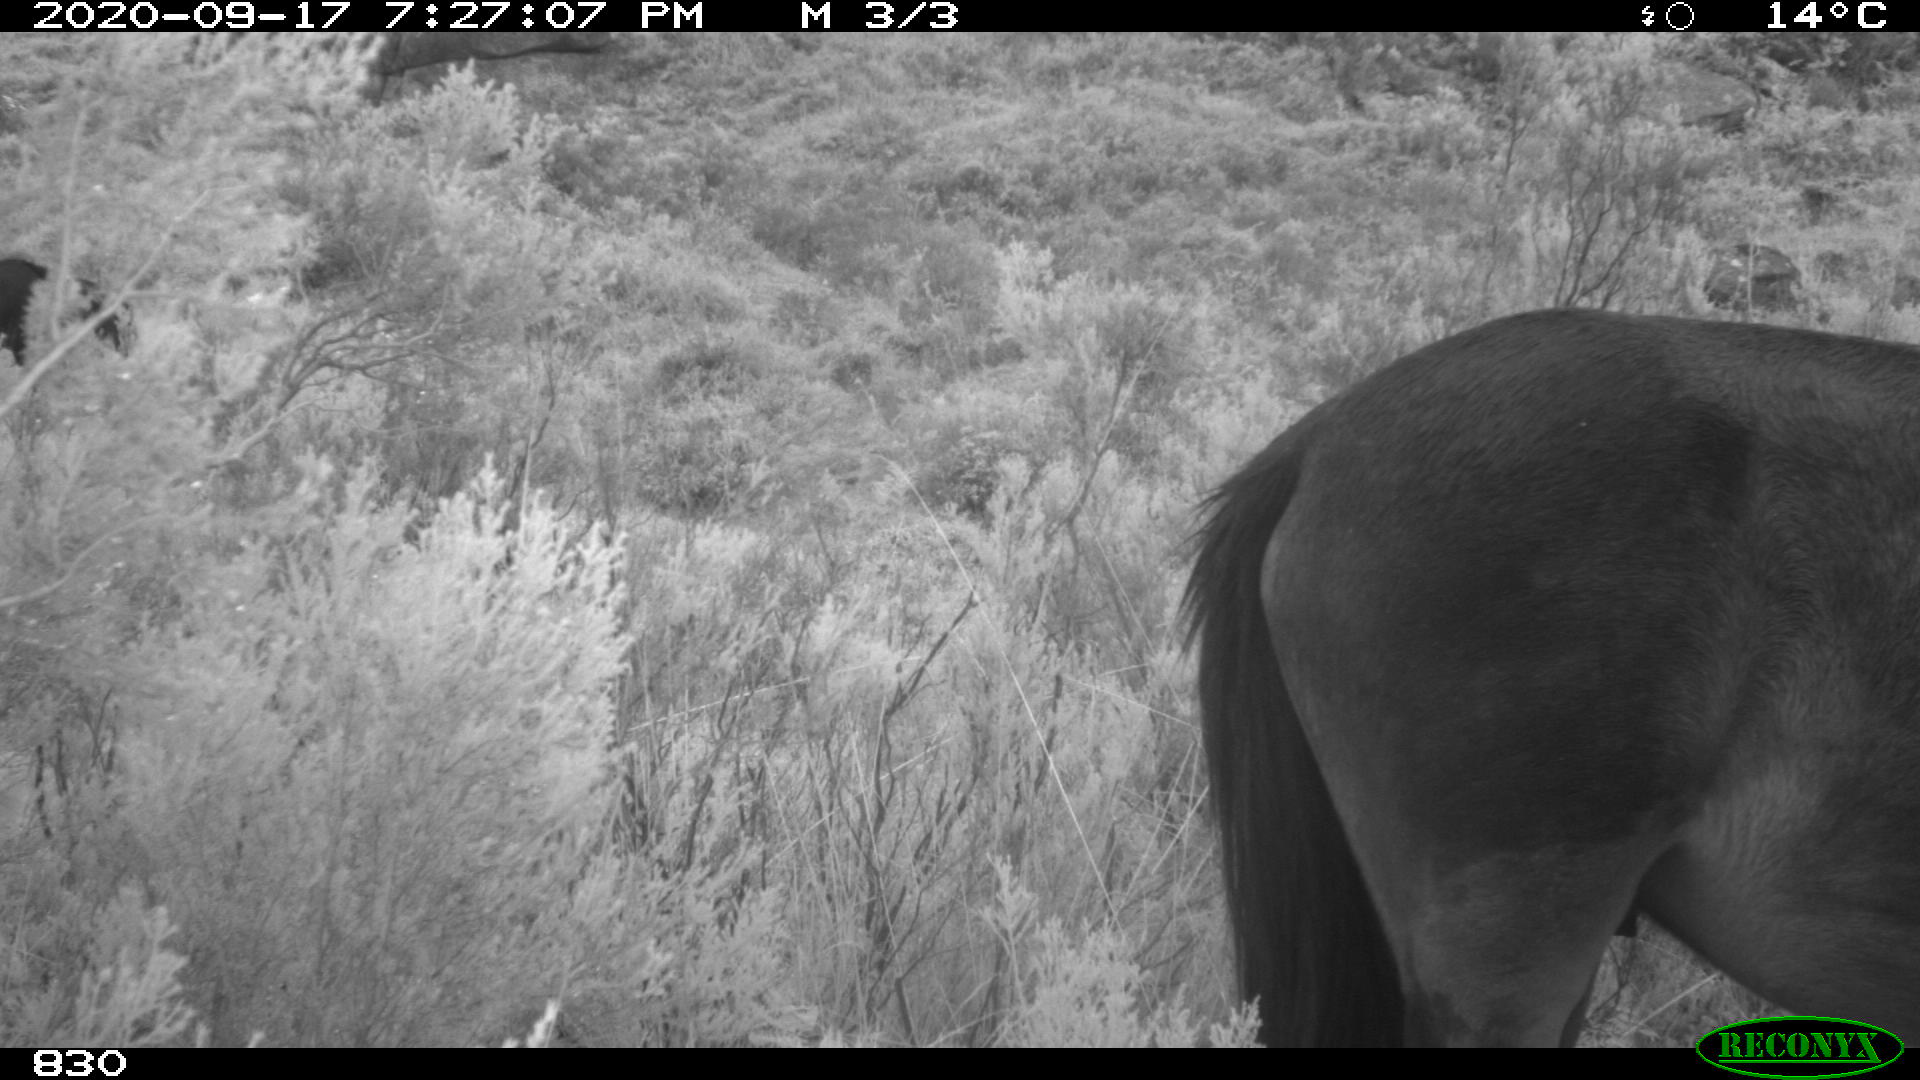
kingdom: Animalia
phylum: Chordata
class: Mammalia
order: Perissodactyla
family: Equidae
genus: Equus
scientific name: Equus caballus
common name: Horse
